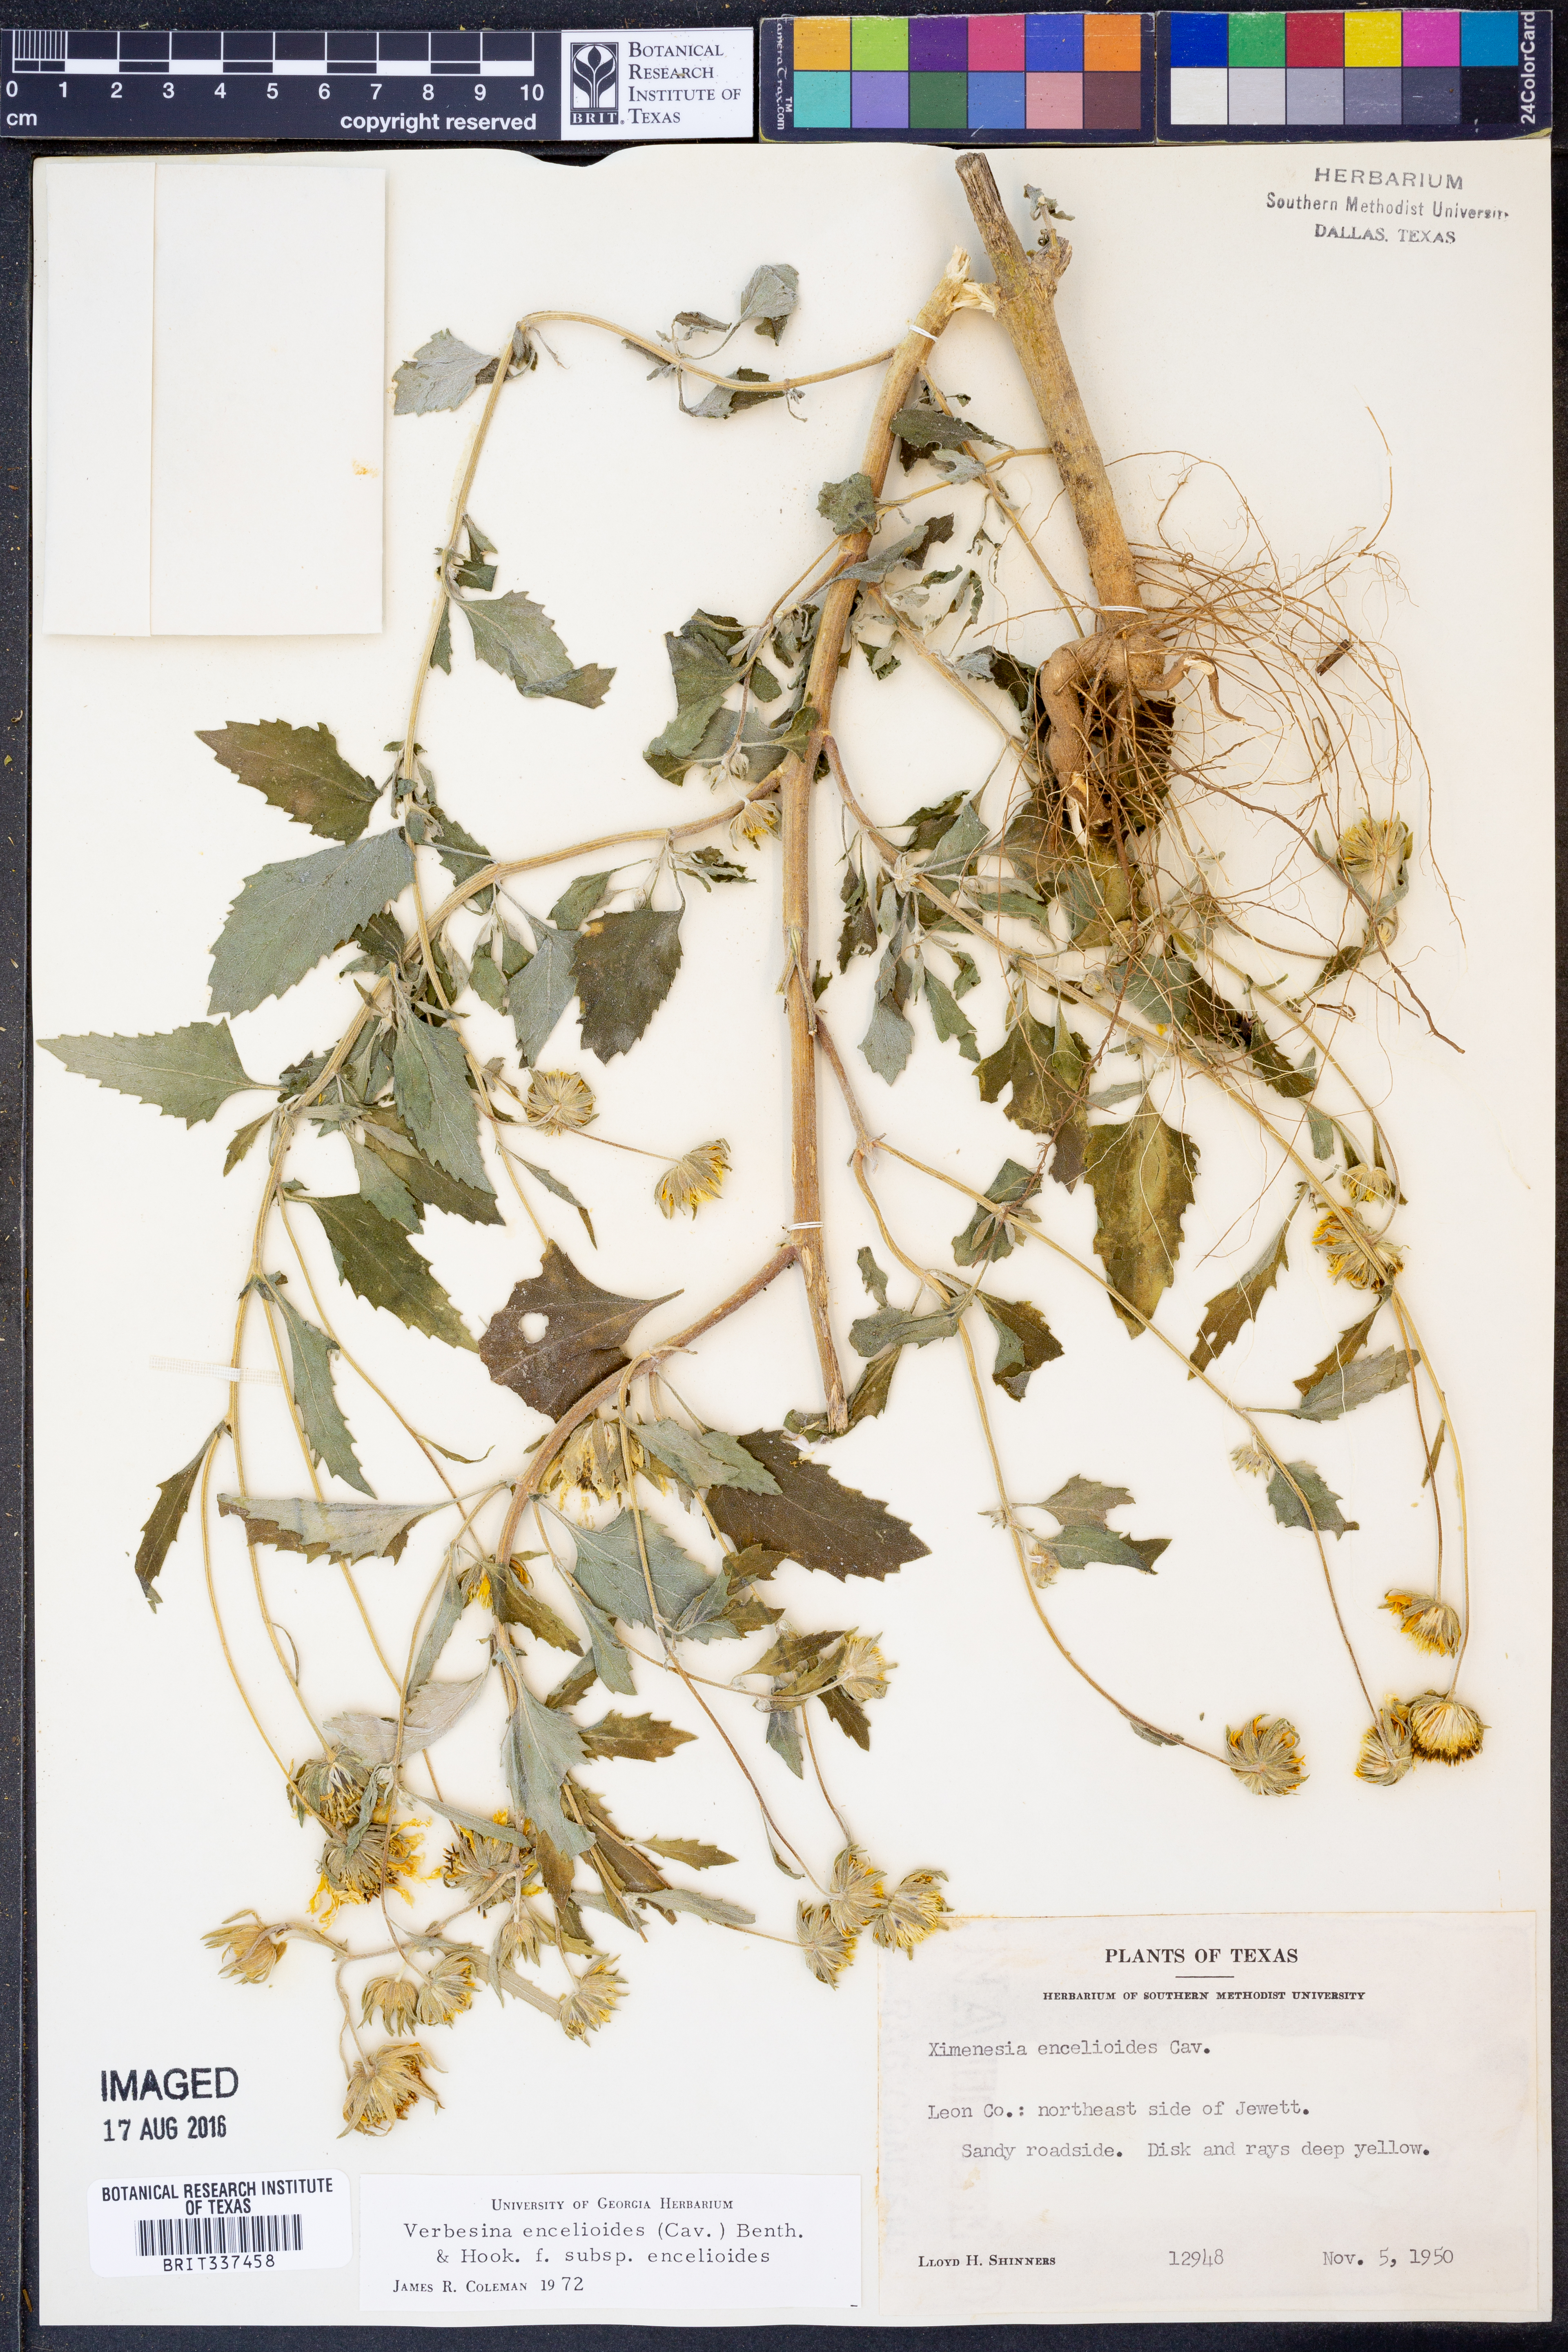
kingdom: Plantae
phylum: Tracheophyta
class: Magnoliopsida
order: Asterales
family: Asteraceae
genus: Verbesina
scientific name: Verbesina encelioides
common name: Golden crownbeard
